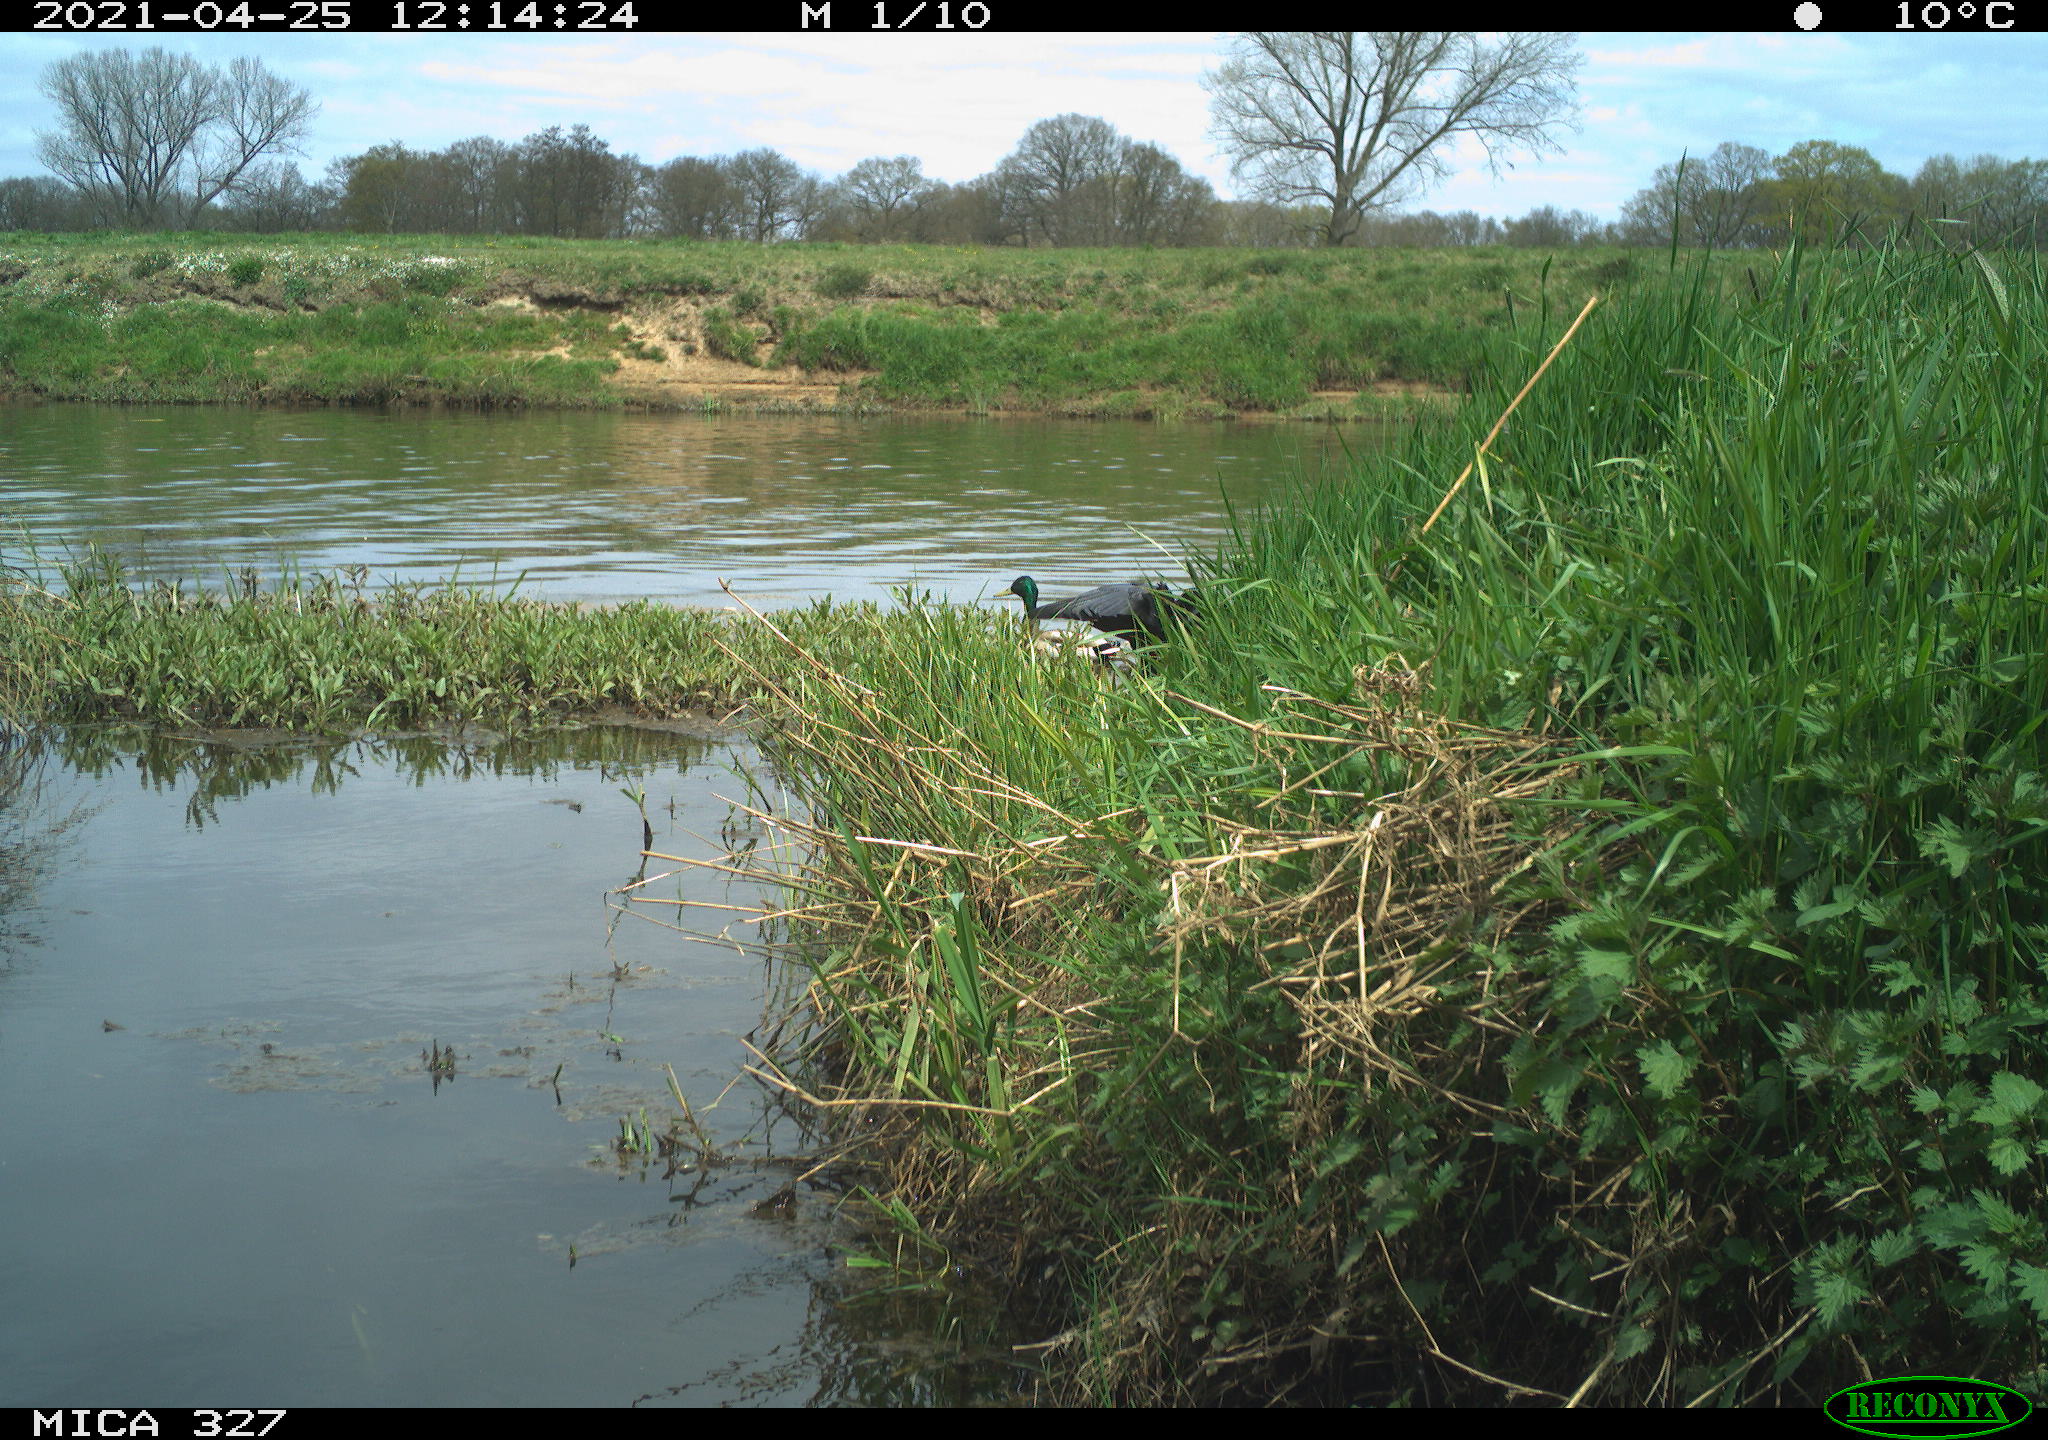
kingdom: Animalia
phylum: Chordata
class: Aves
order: Passeriformes
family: Corvidae
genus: Corvus
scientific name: Corvus corone
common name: Carrion crow
